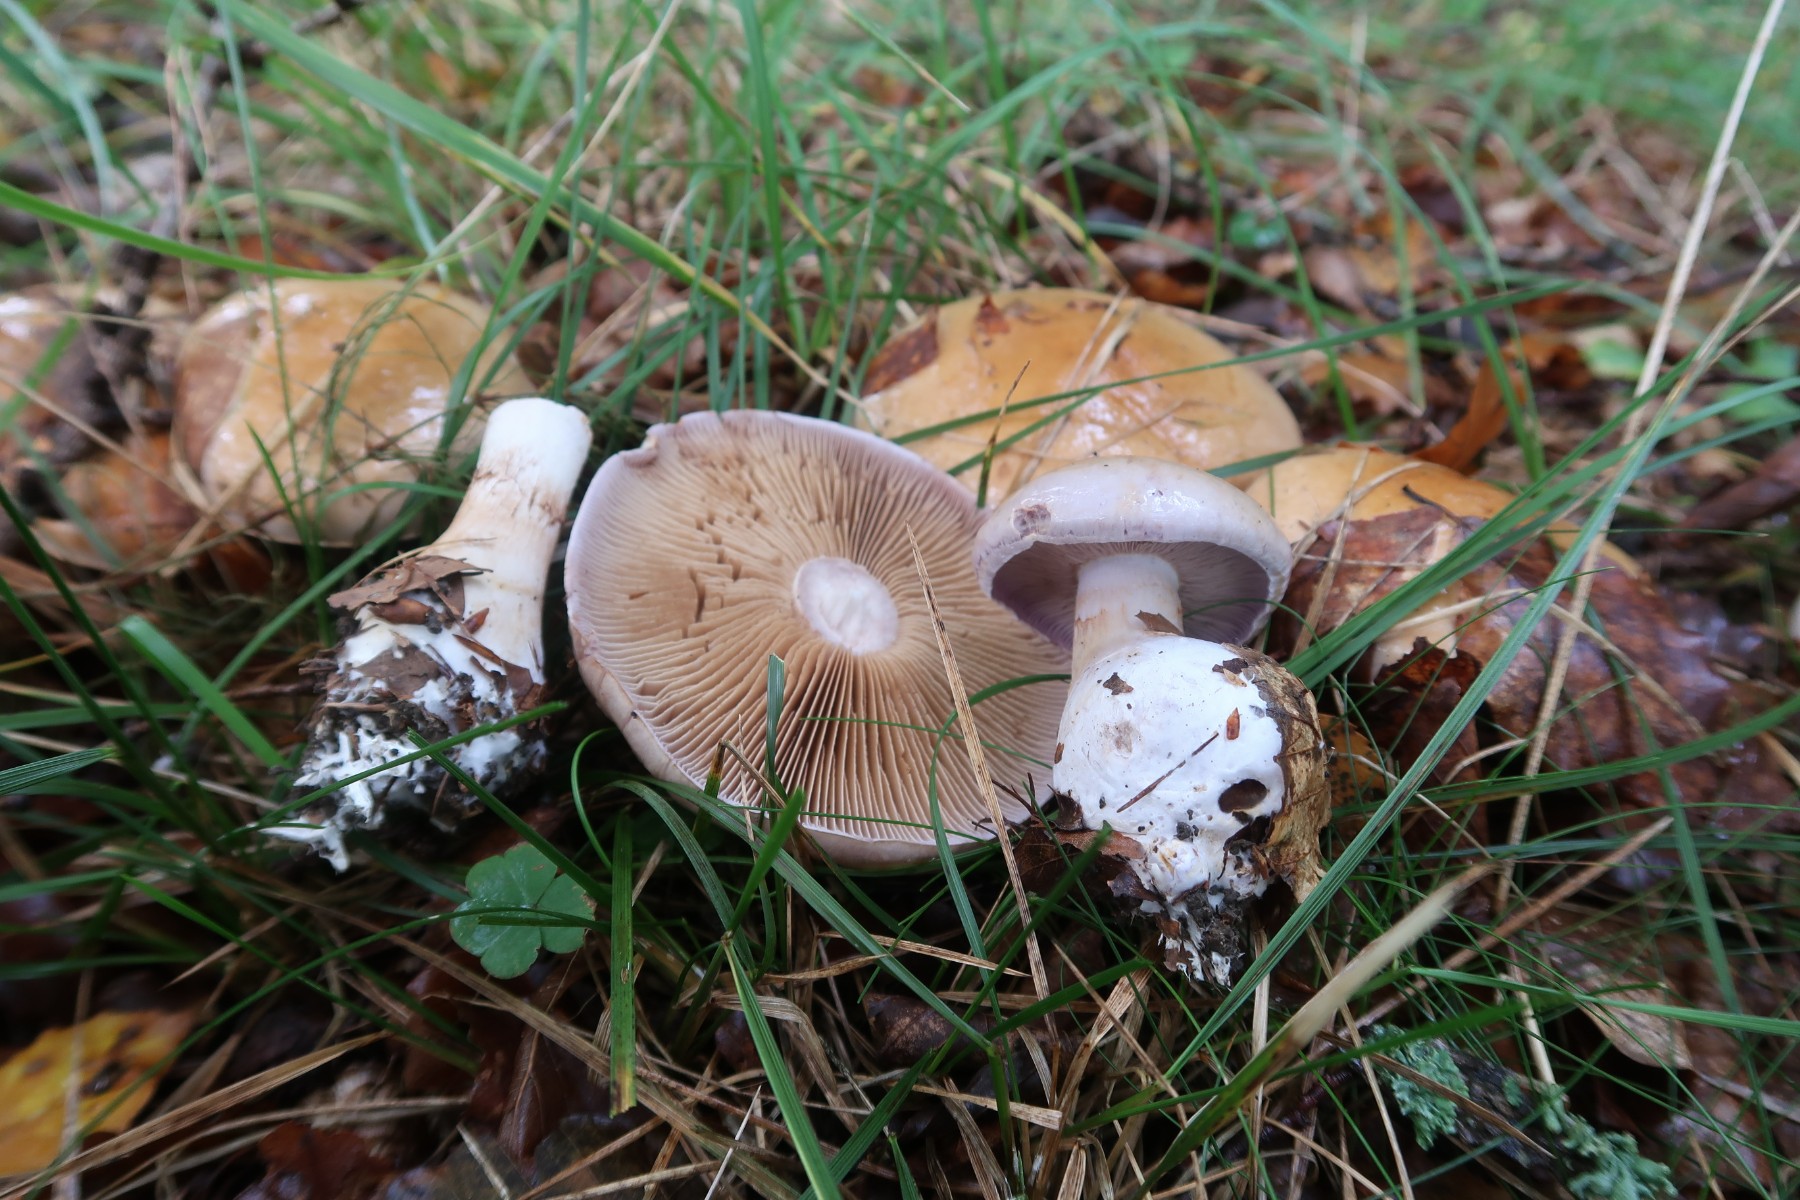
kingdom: Fungi
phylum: Basidiomycota
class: Agaricomycetes
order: Agaricales
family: Cortinariaceae
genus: Cortinarius
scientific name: Cortinarius largus
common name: violetrandet slørhat
